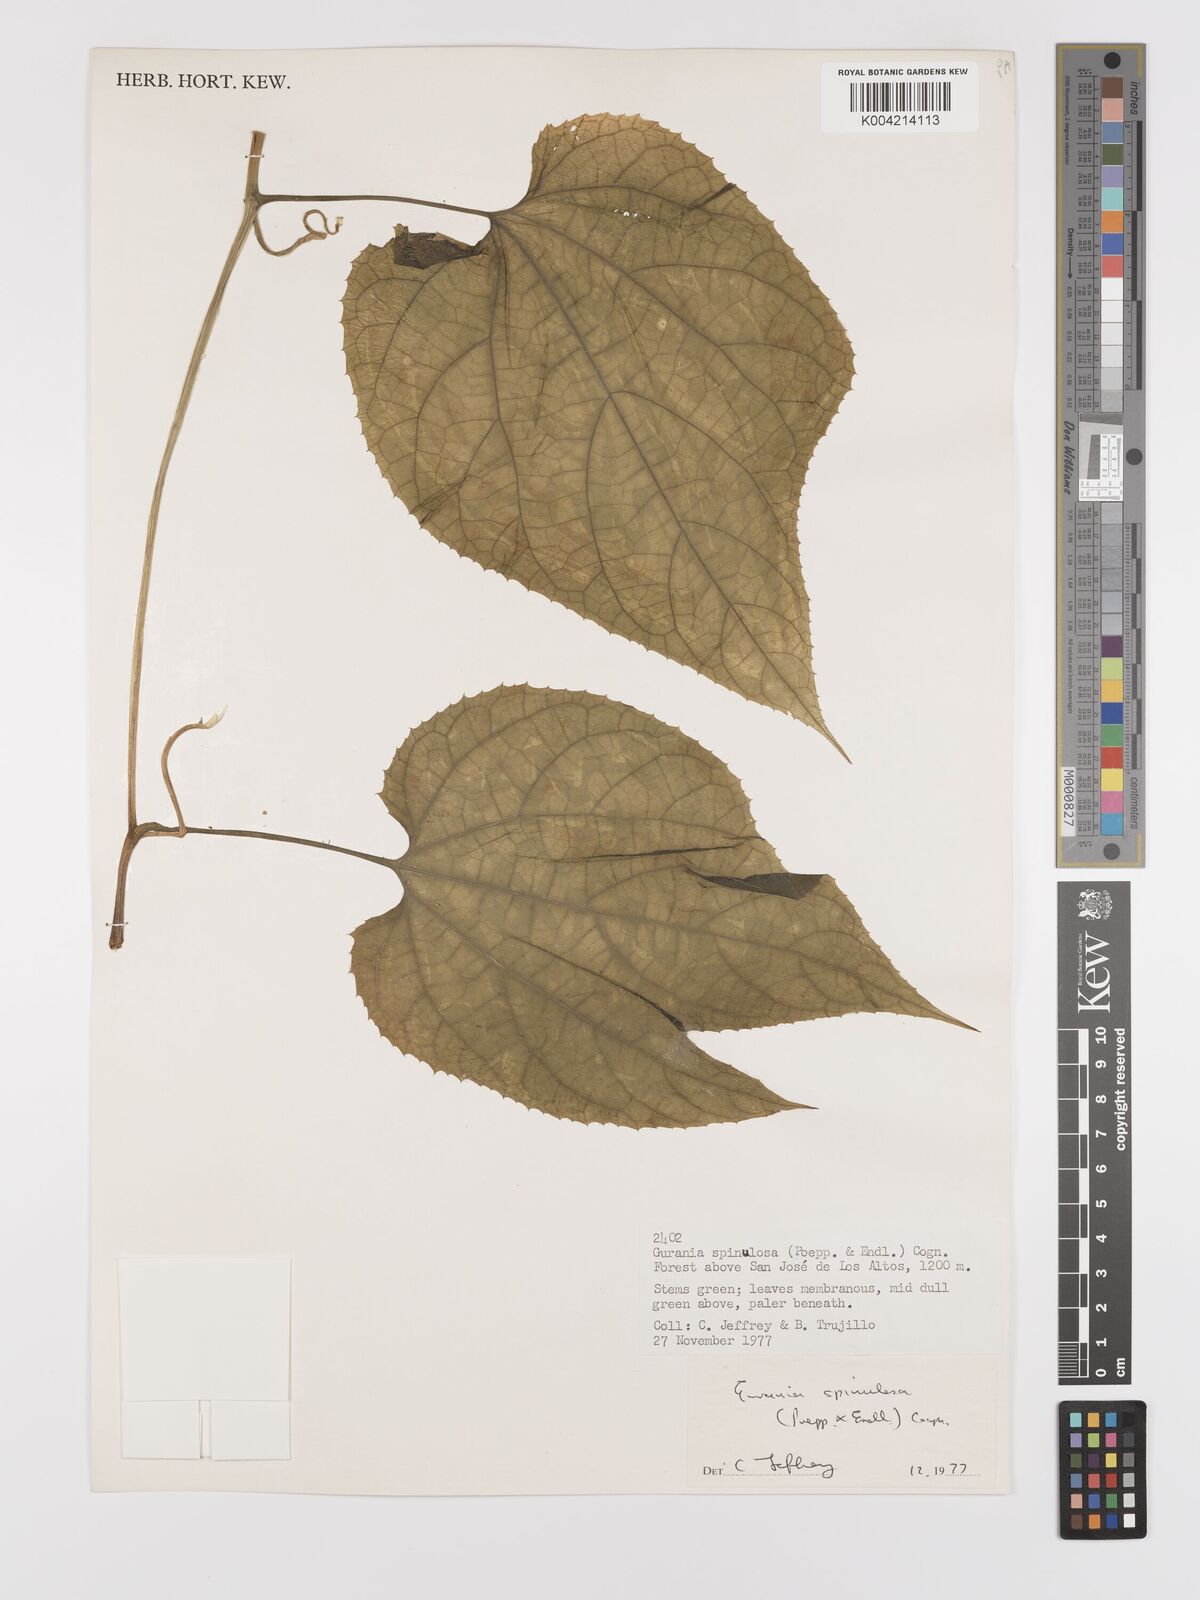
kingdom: Plantae
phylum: Tracheophyta
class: Magnoliopsida
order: Cucurbitales
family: Cucurbitaceae
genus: Gurania
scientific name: Gurania lobata
